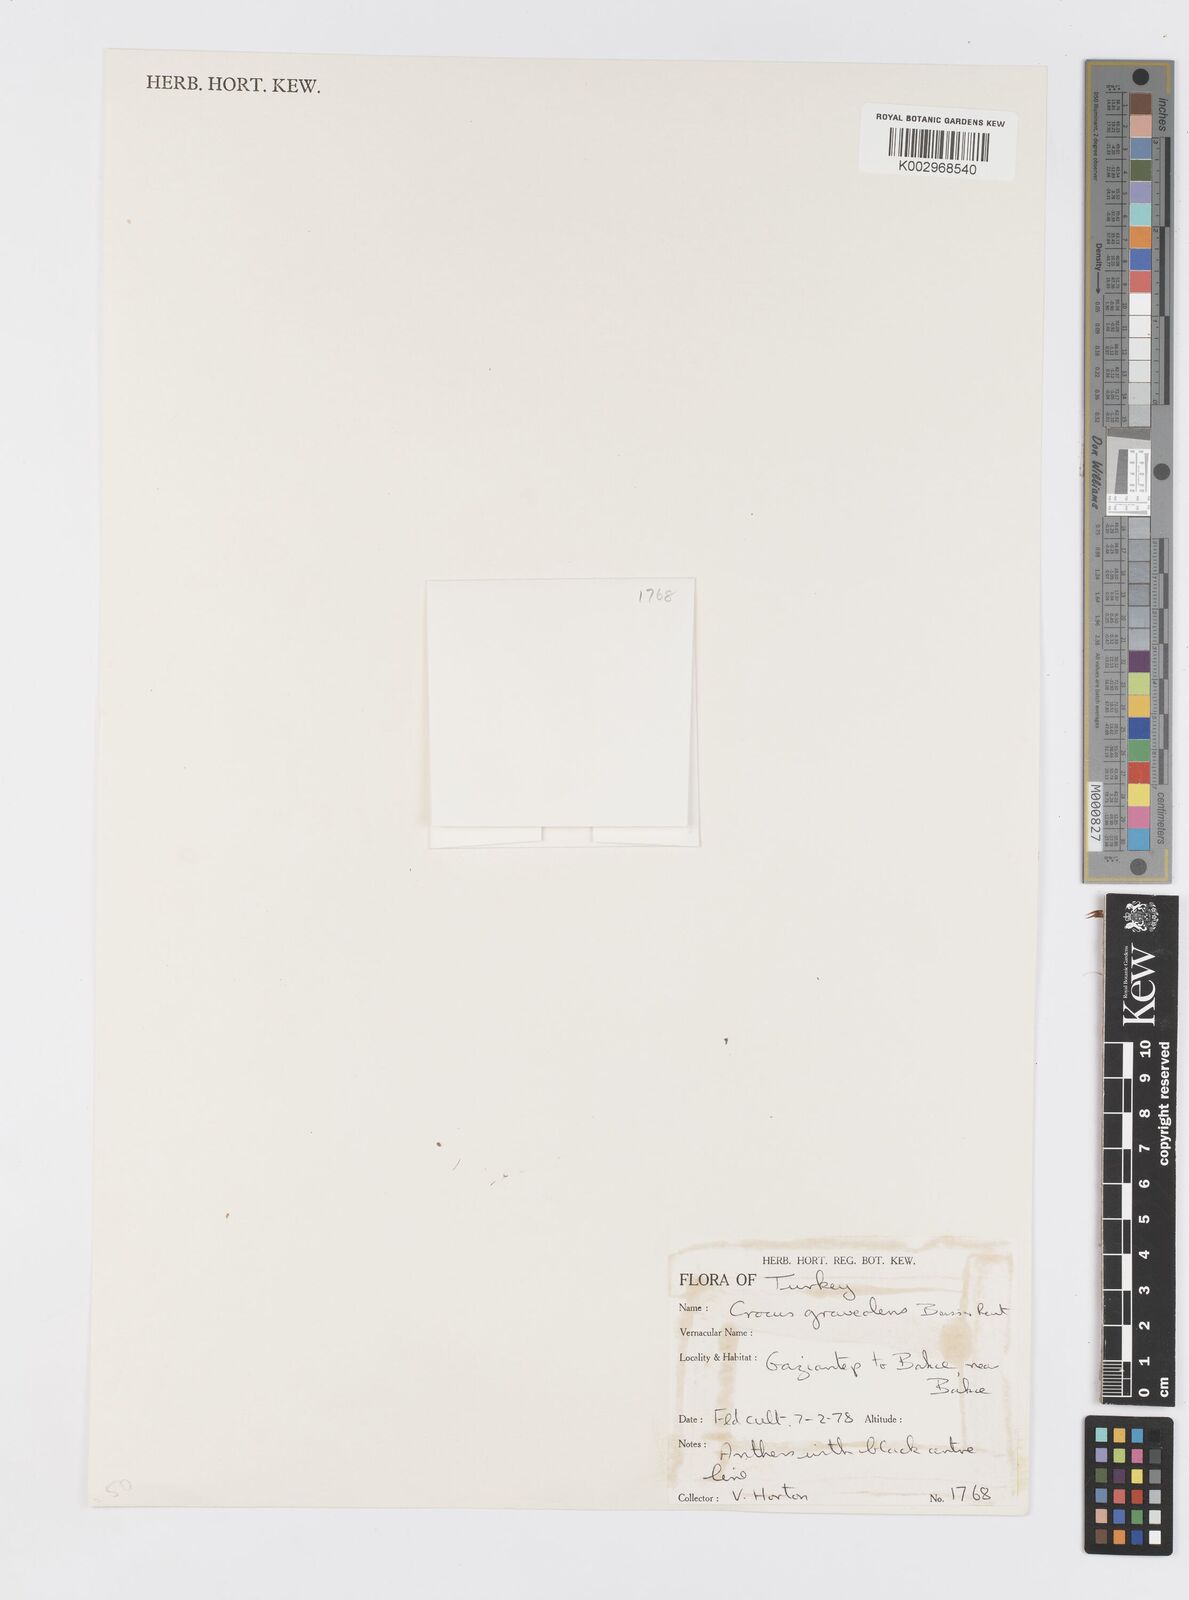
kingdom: Plantae
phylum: Tracheophyta
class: Liliopsida
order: Asparagales
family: Iridaceae
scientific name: Iridaceae
